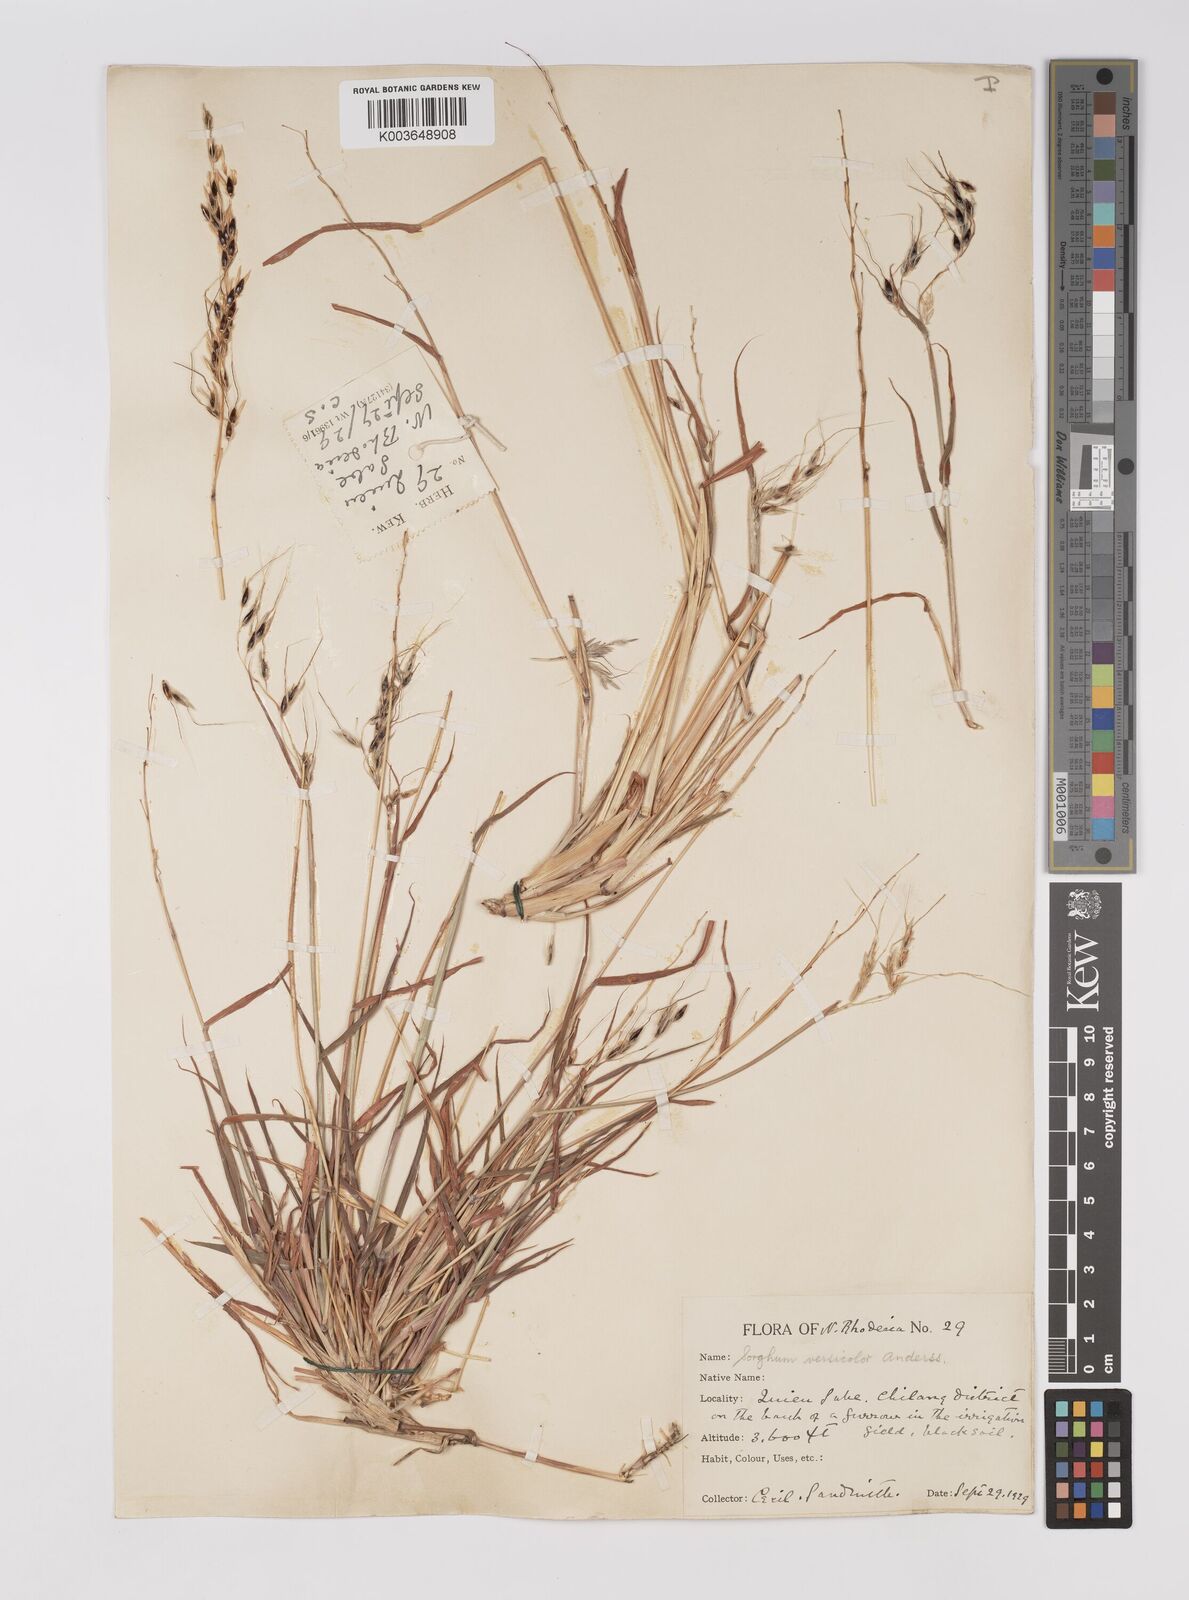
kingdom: Plantae
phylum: Tracheophyta
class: Liliopsida
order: Poales
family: Poaceae
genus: Sarga
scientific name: Sarga versicolor
